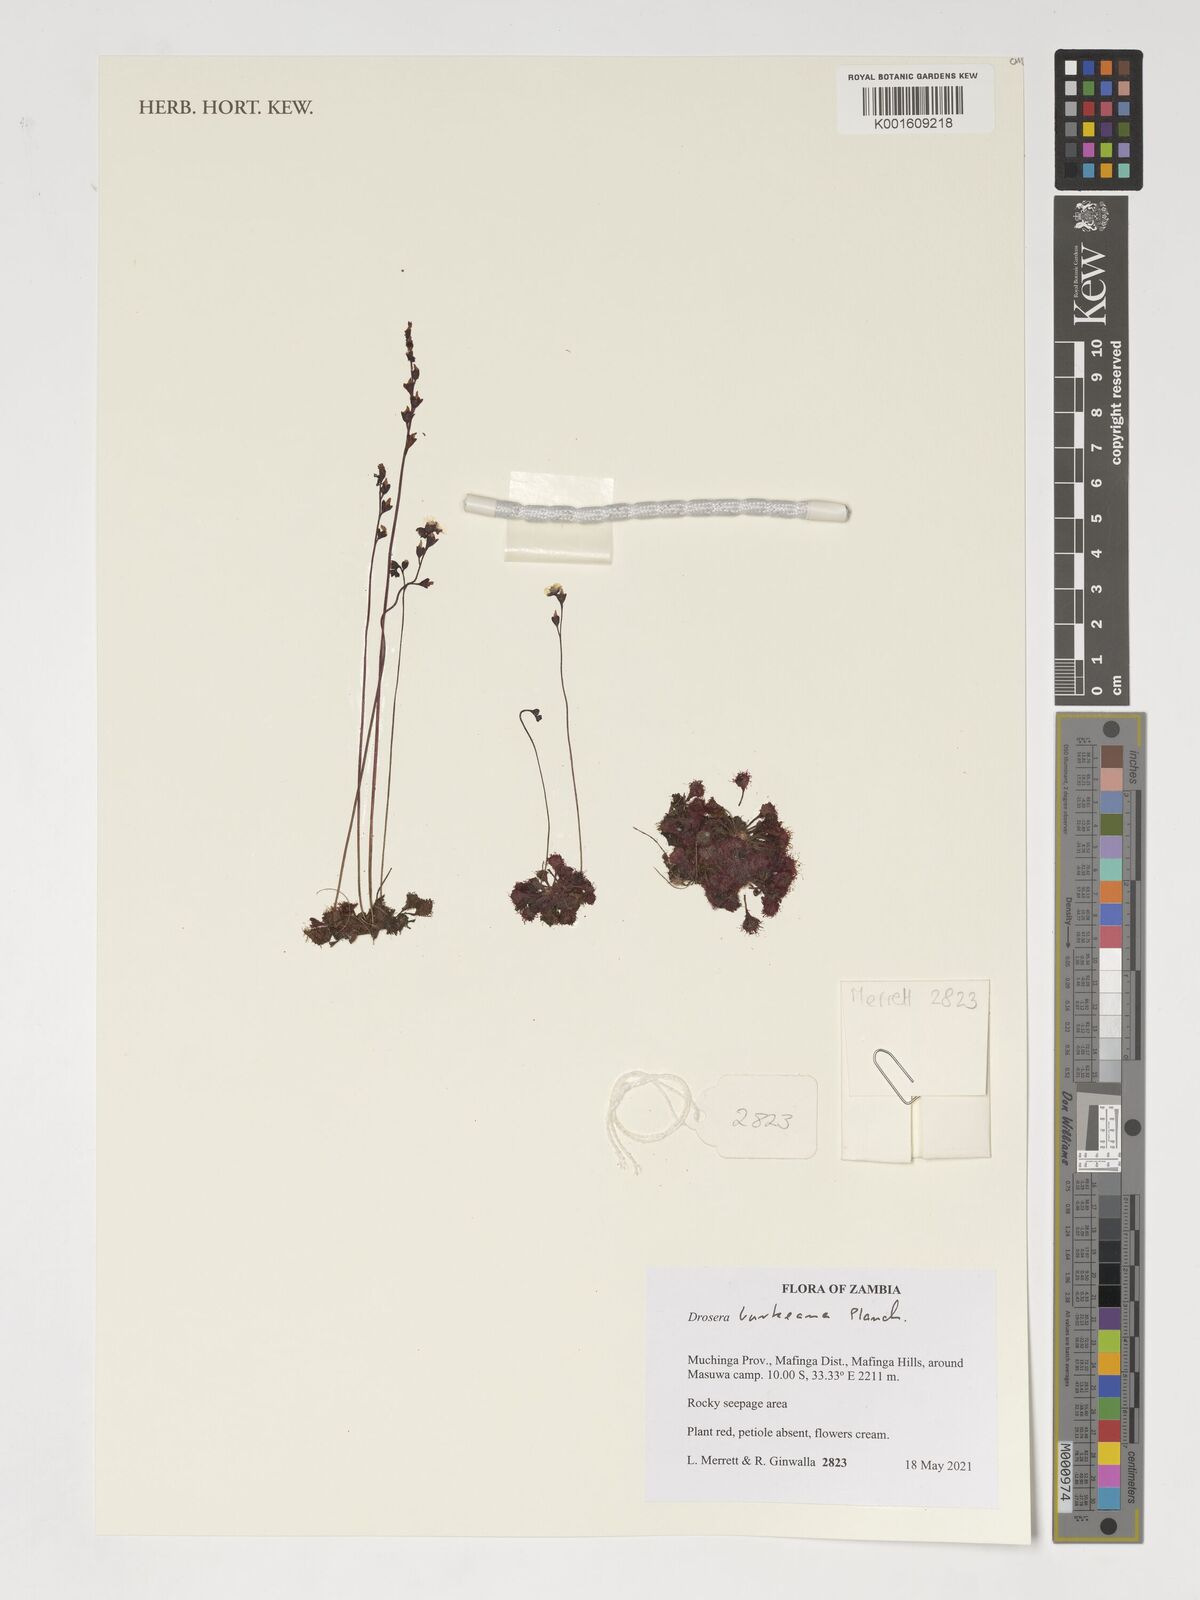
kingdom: Plantae
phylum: Tracheophyta
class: Magnoliopsida
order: Caryophyllales
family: Droseraceae
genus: Drosera
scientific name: Drosera burkeana
